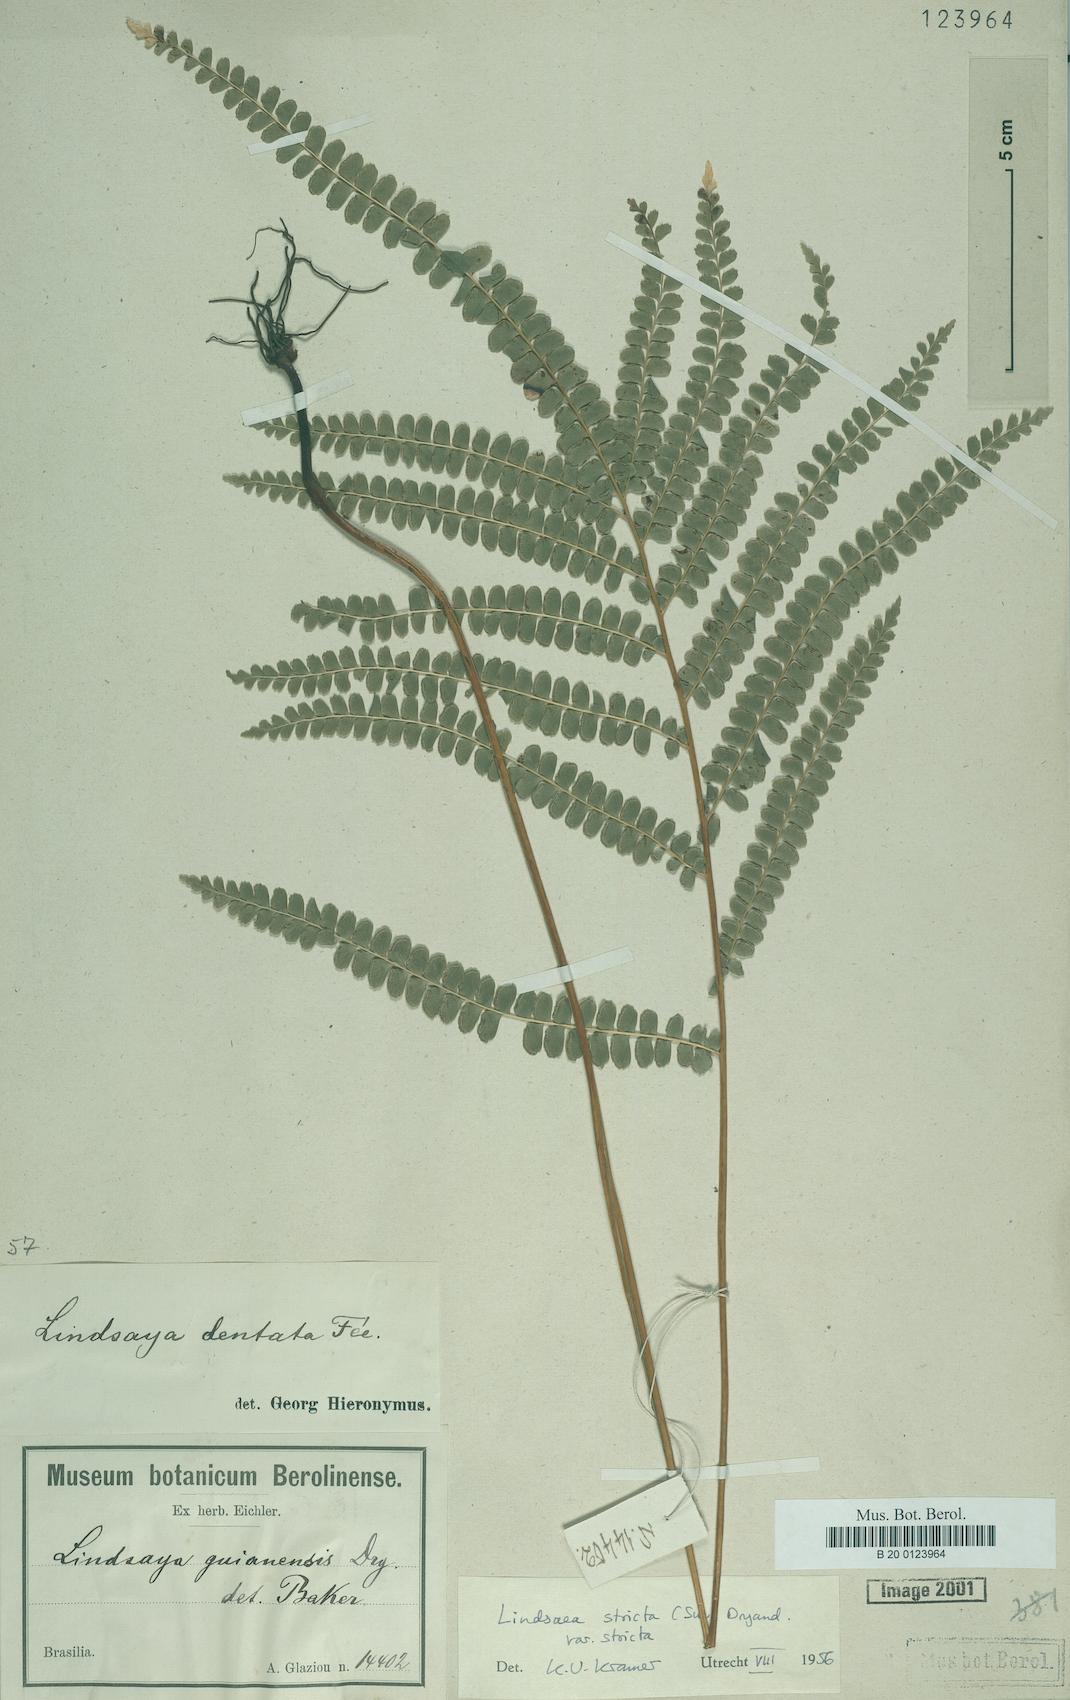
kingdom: Plantae
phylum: Tracheophyta
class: Polypodiopsida
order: Polypodiales
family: Lindsaeaceae
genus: Lindsaea
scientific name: Lindsaea stricta
